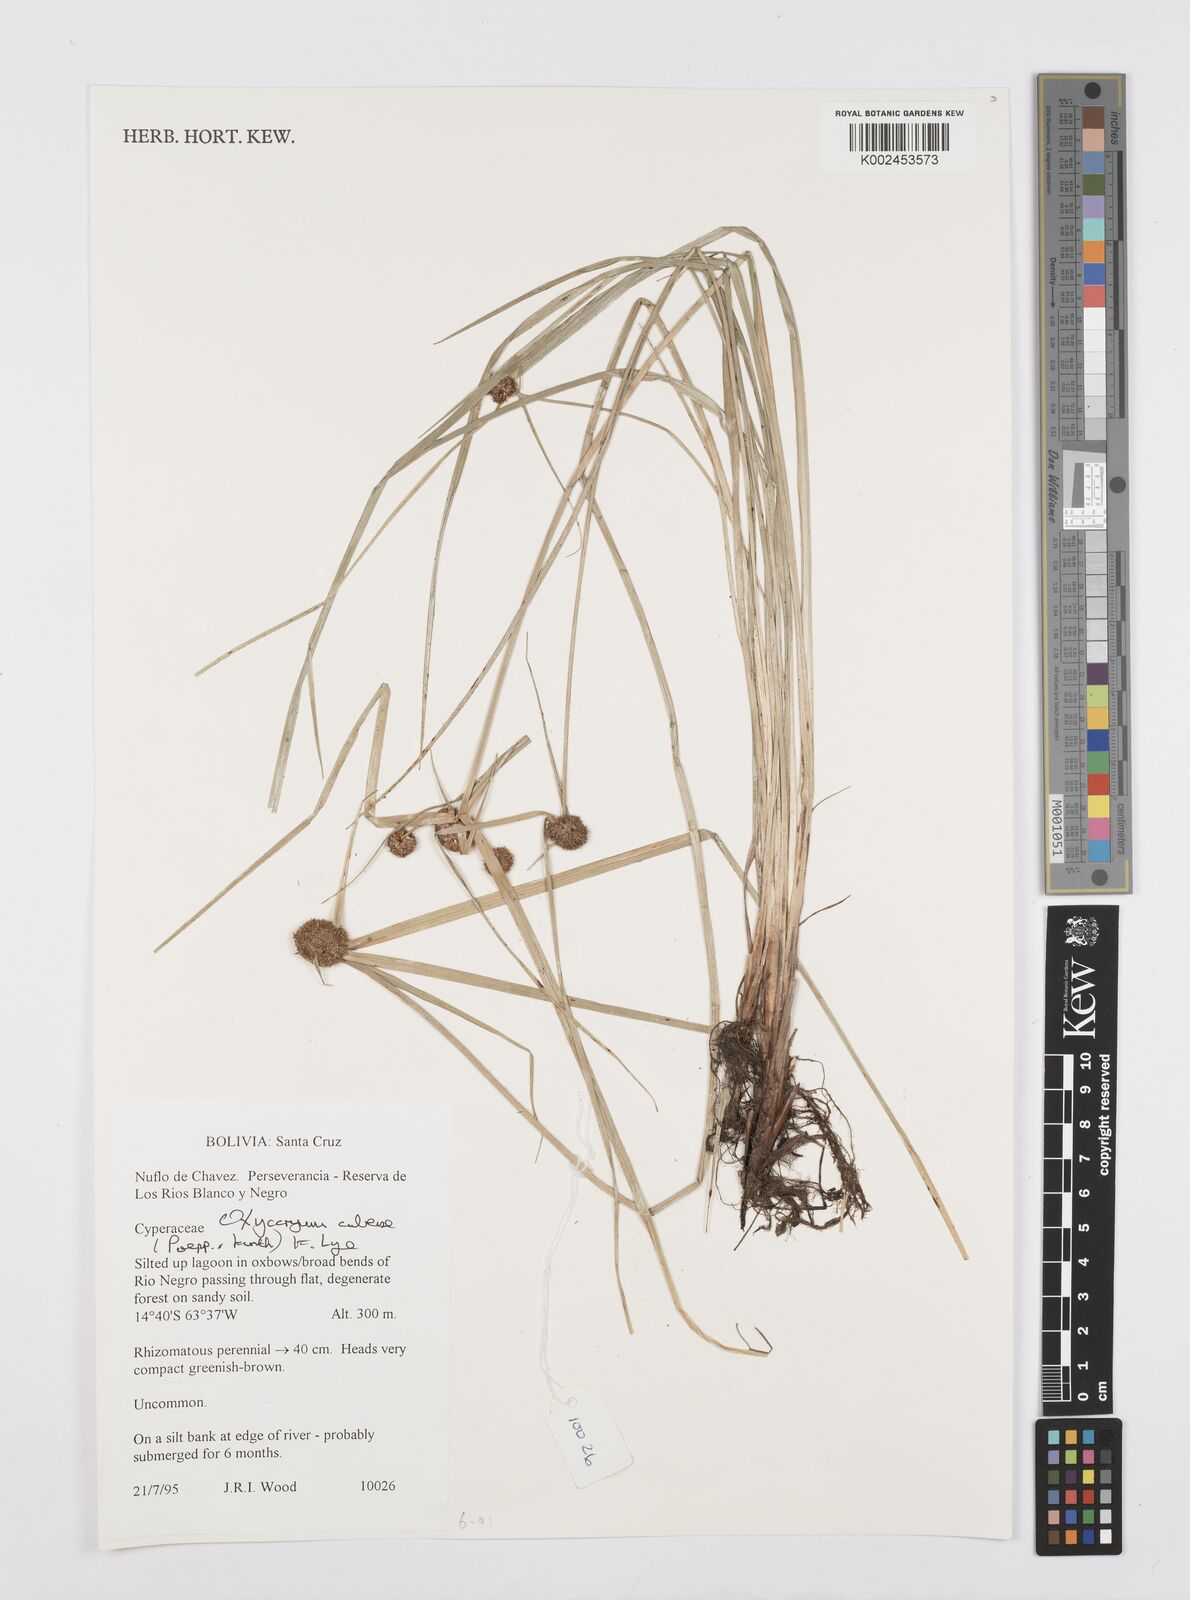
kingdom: Plantae
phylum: Tracheophyta
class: Liliopsida
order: Poales
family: Cyperaceae
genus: Cyperus
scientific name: Cyperus elegans
